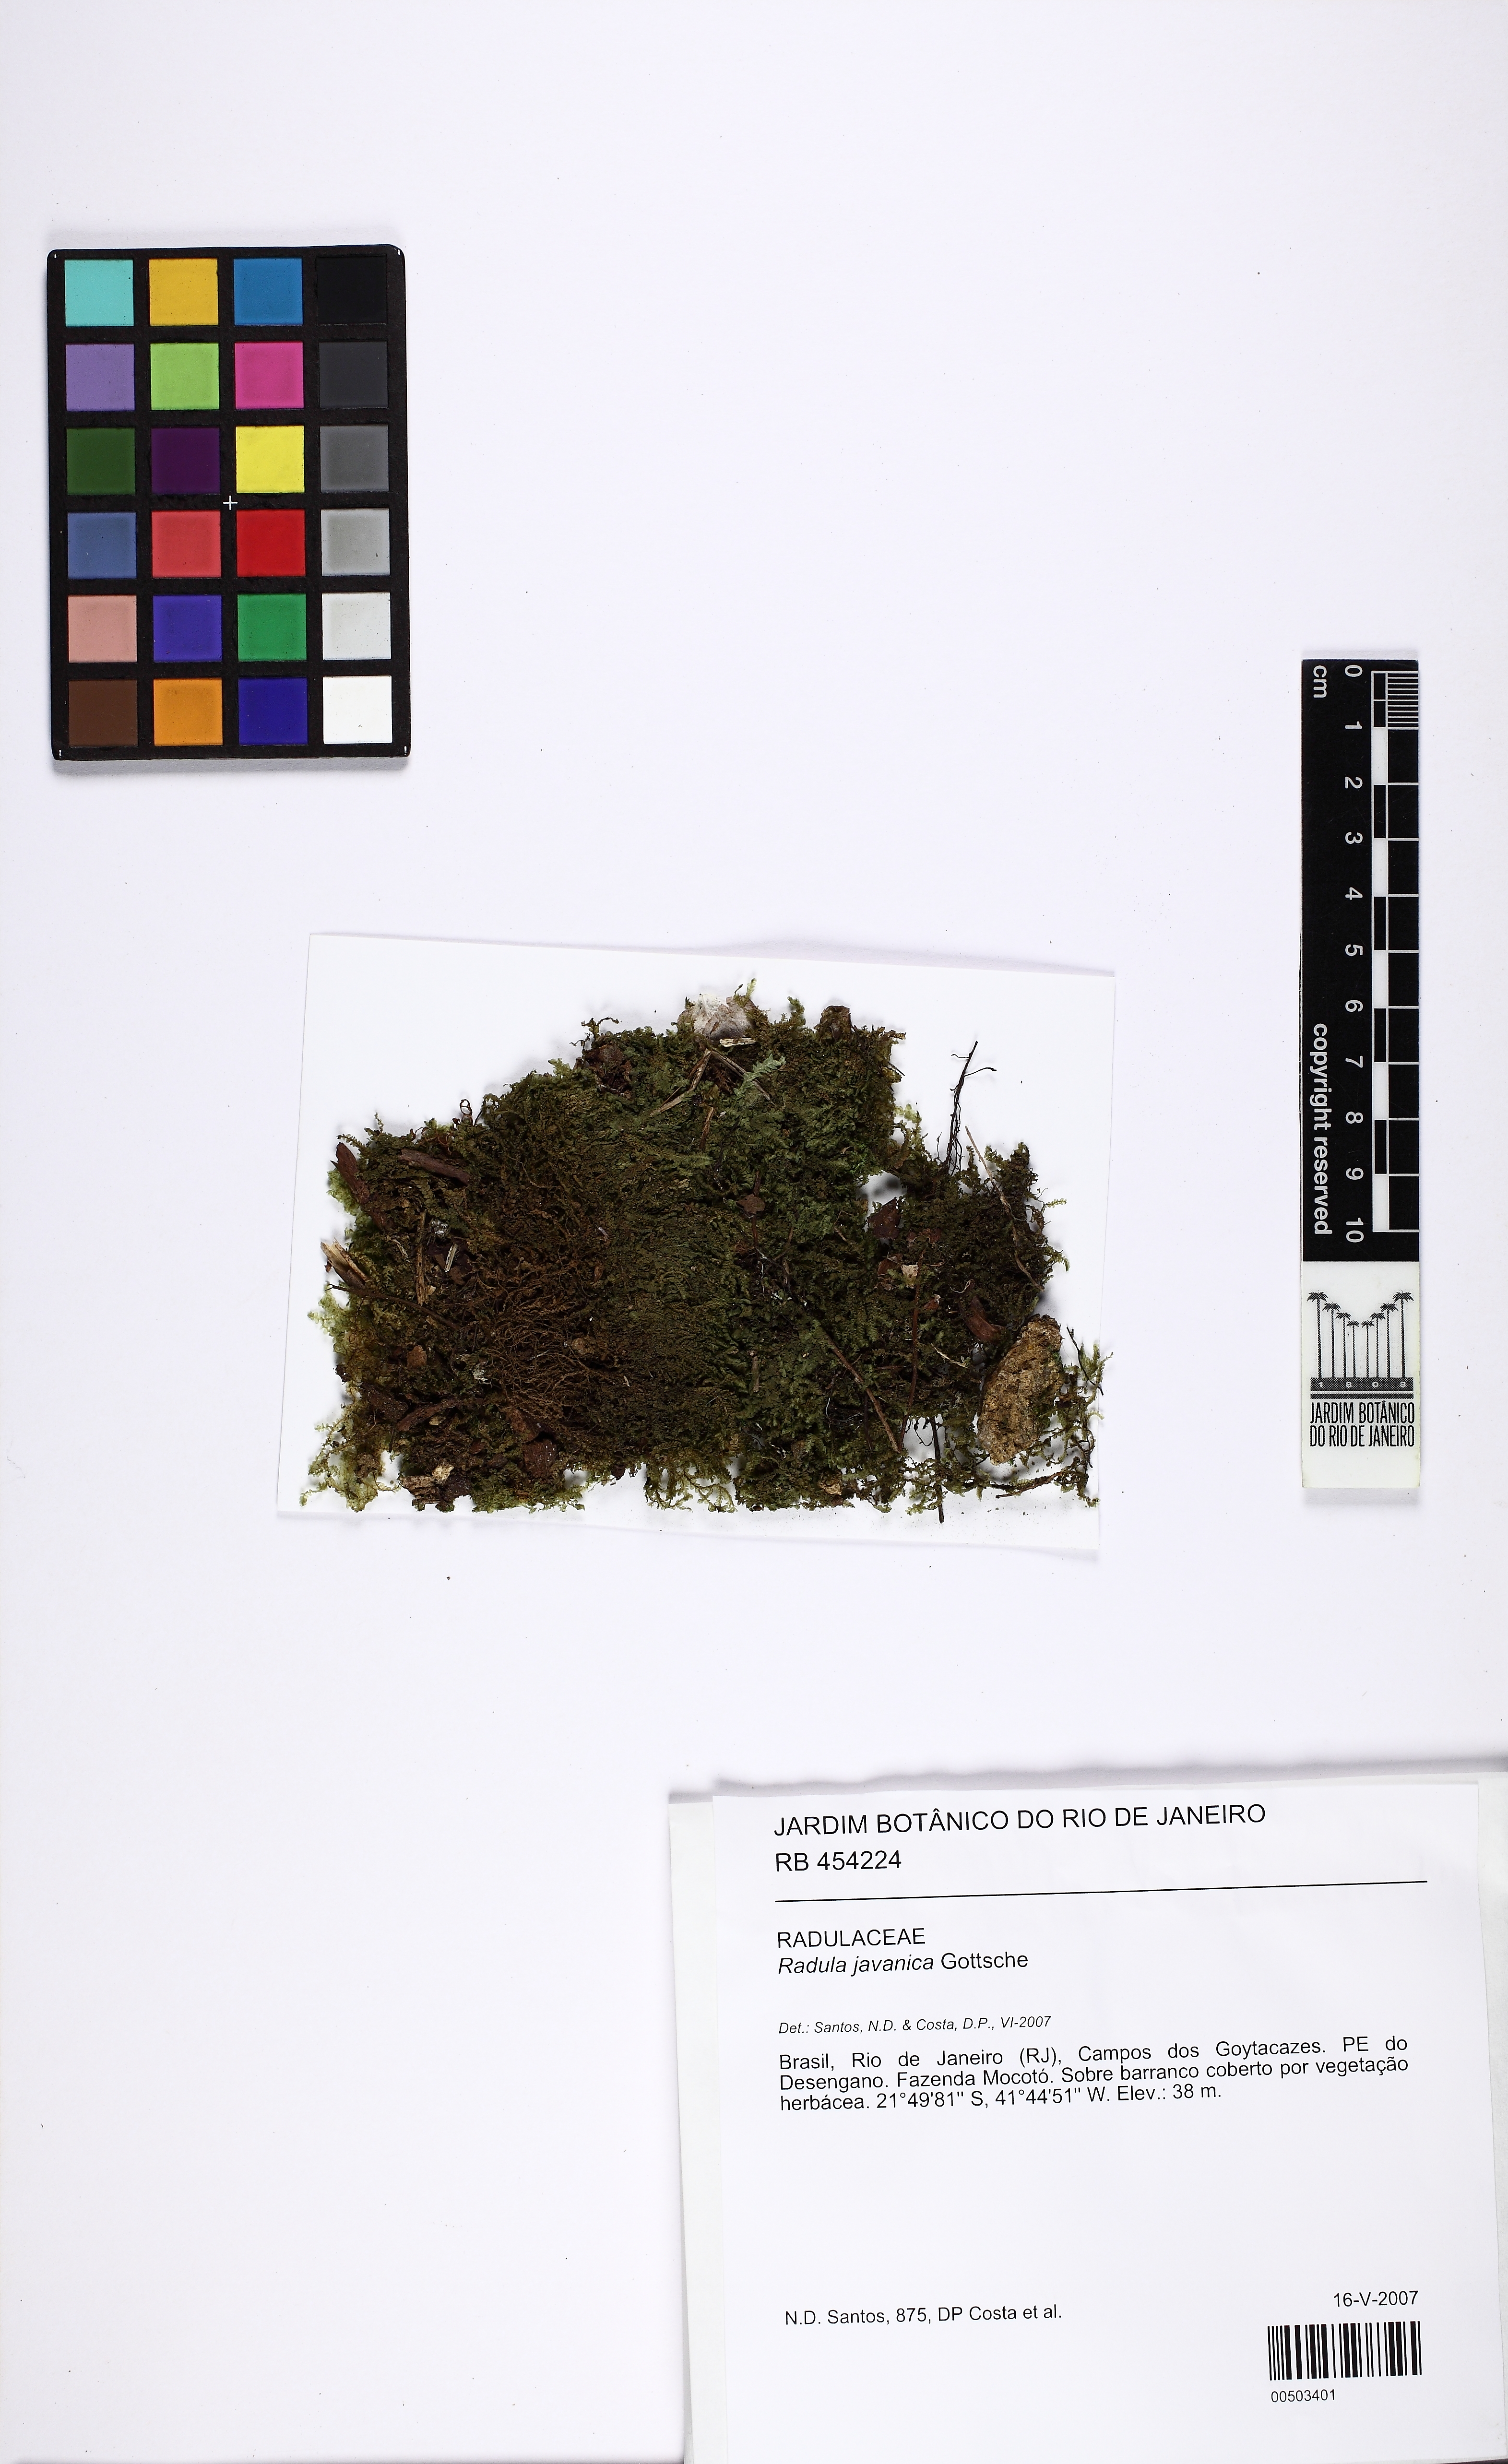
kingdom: Plantae
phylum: Marchantiophyta
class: Jungermanniopsida
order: Porellales
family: Radulaceae
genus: Radula
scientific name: Radula javanica
